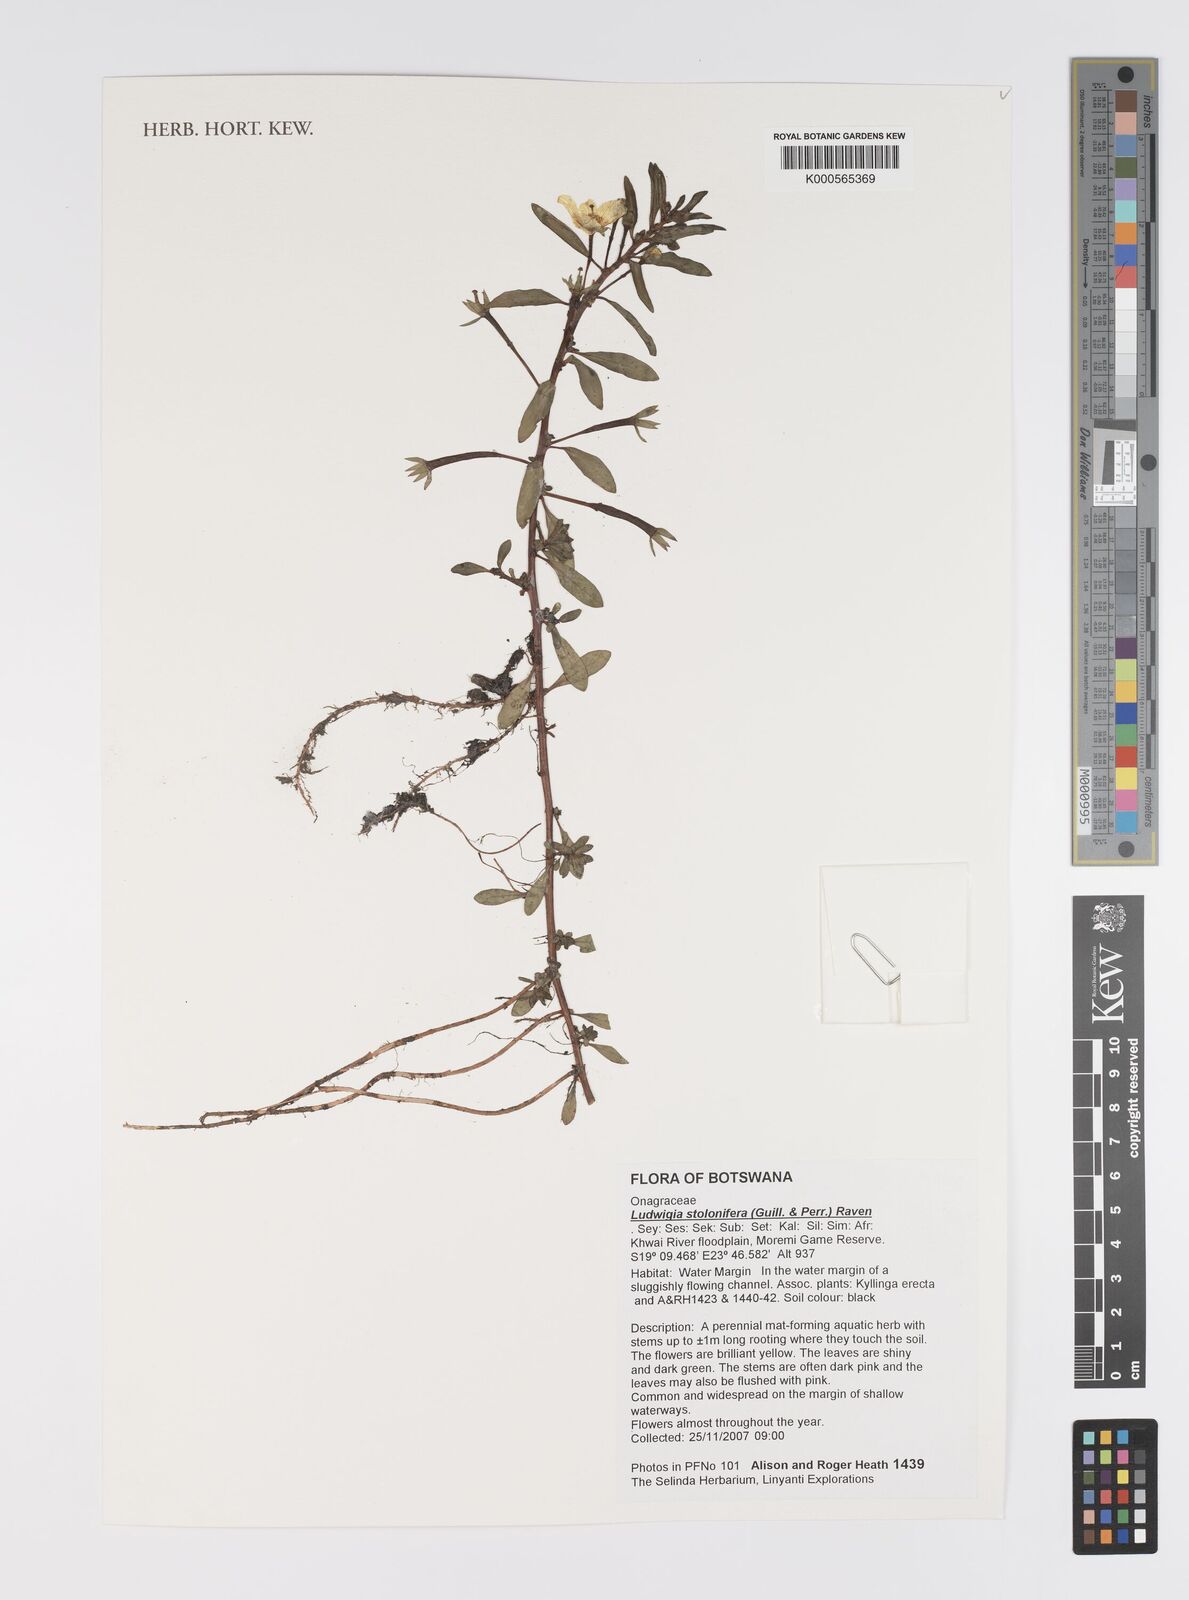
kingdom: Plantae
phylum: Tracheophyta
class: Magnoliopsida
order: Myrtales
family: Onagraceae
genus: Ludwigia
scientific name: Ludwigia adscendens
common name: Creeping water primrose
